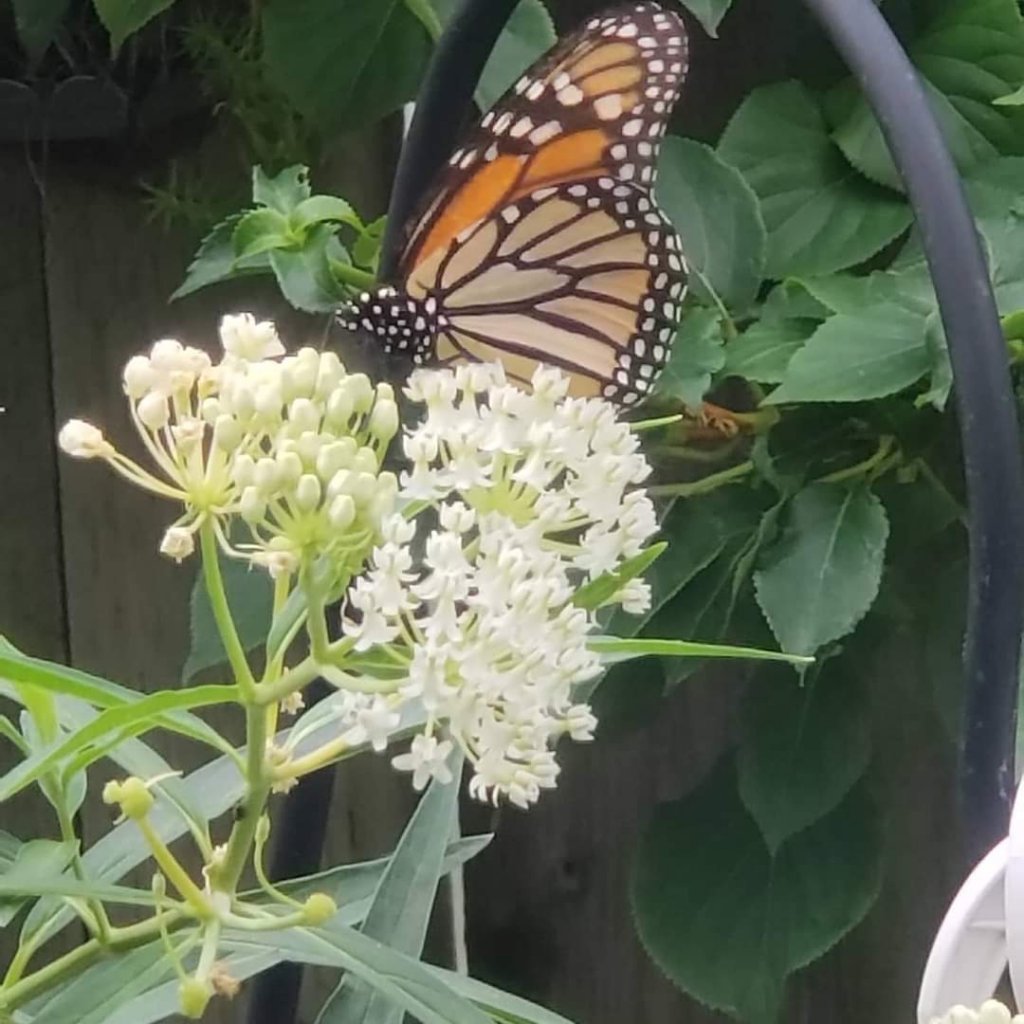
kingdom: Animalia
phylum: Arthropoda
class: Insecta
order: Lepidoptera
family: Nymphalidae
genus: Danaus
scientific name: Danaus plexippus
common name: Monarch
